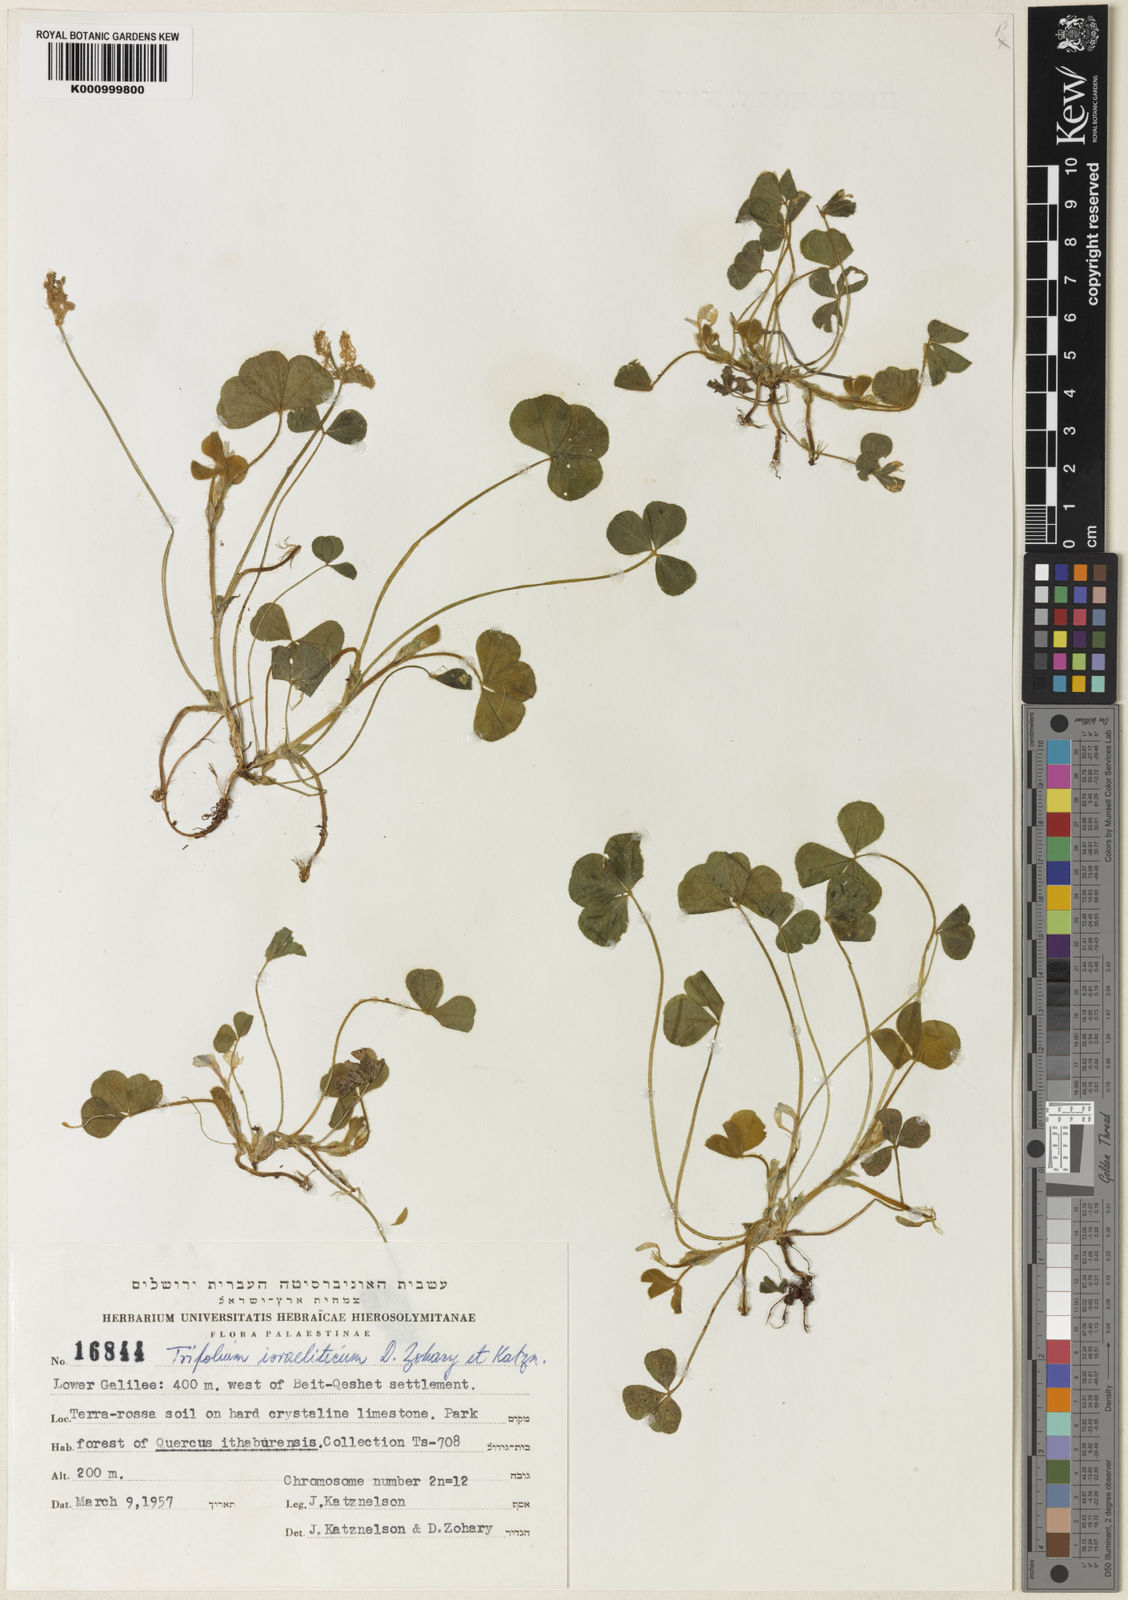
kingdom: Plantae
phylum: Tracheophyta
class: Magnoliopsida
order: Fabales
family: Fabaceae
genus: Trifolium
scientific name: Trifolium israeliticum
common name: Israel clover
